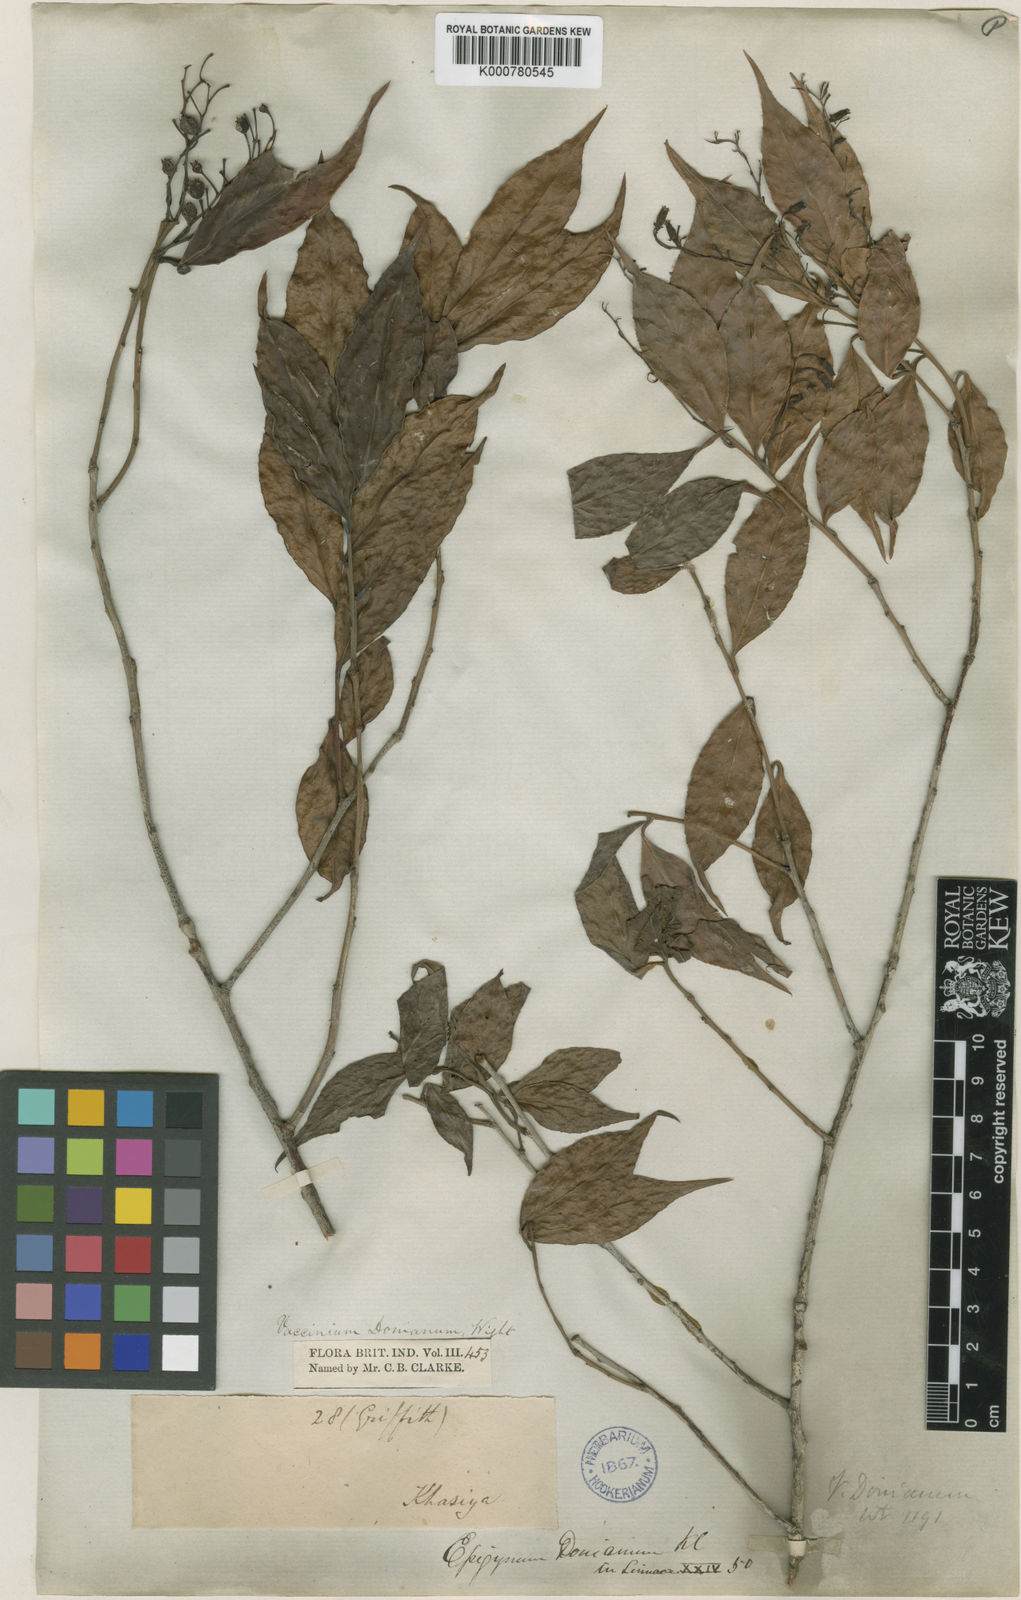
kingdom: Plantae
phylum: Tracheophyta
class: Magnoliopsida
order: Ericales
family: Ericaceae
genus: Vaccinium
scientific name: Vaccinium
